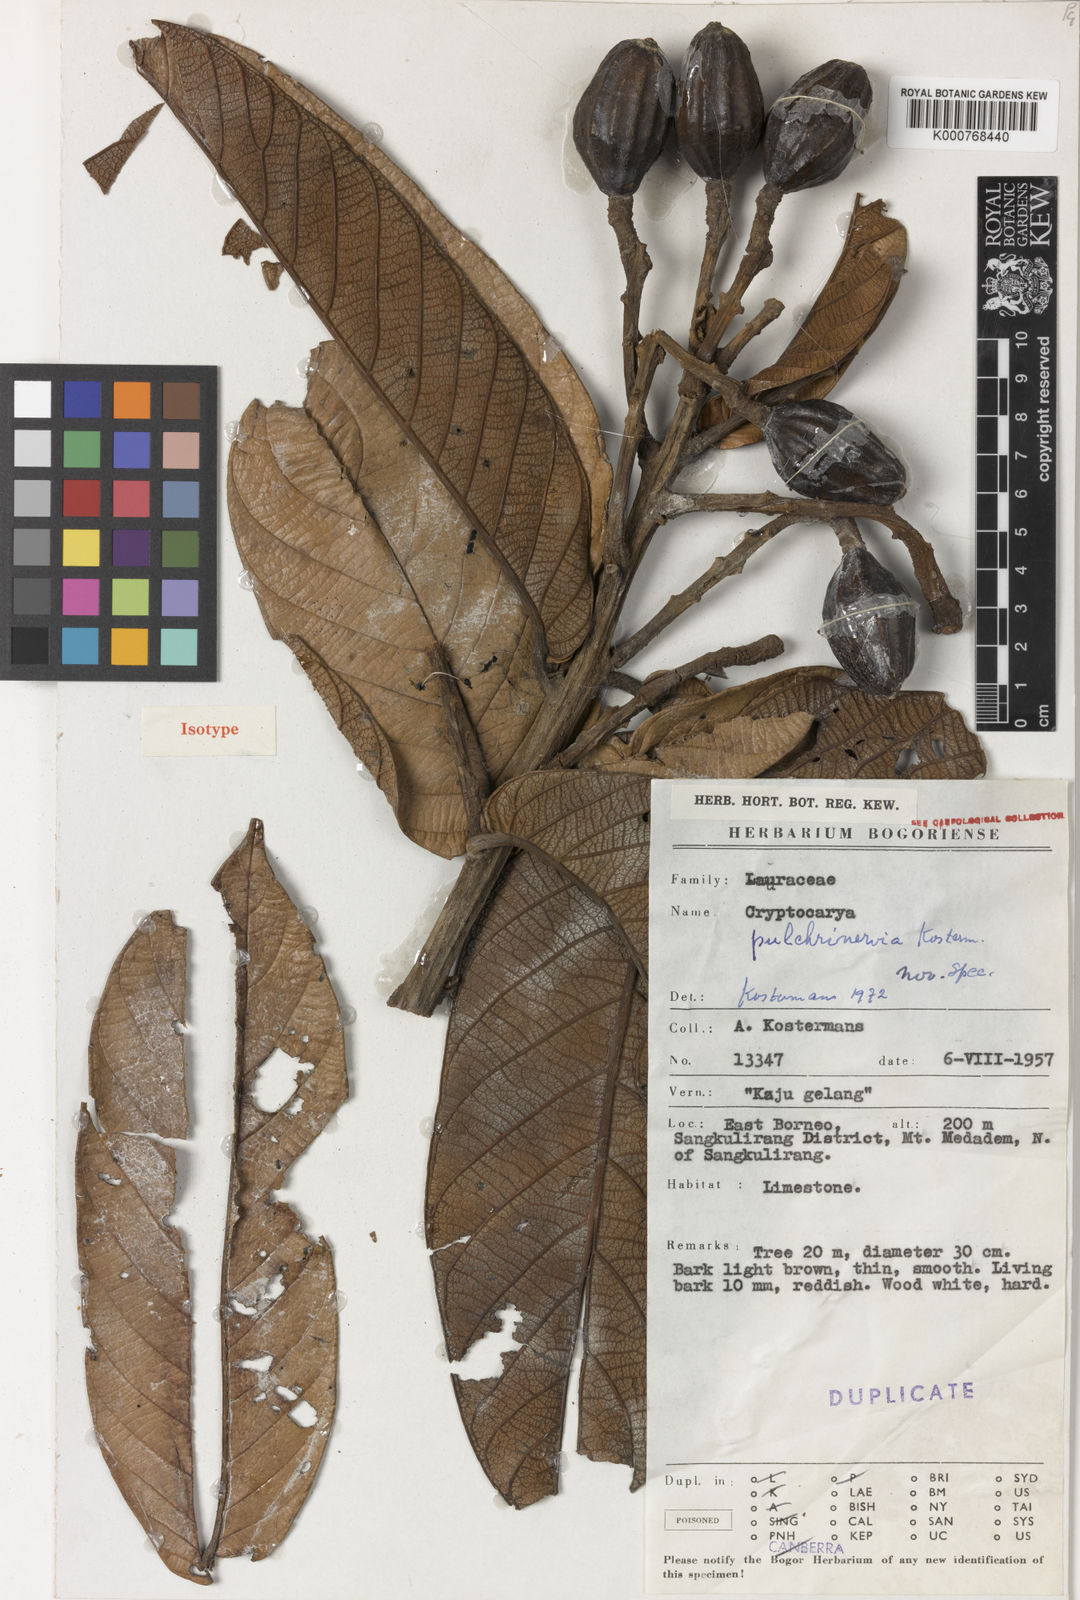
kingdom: Plantae
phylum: Tracheophyta
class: Magnoliopsida
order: Laurales
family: Lauraceae
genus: Cryptocarya
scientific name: Cryptocarya pulchrinervia
